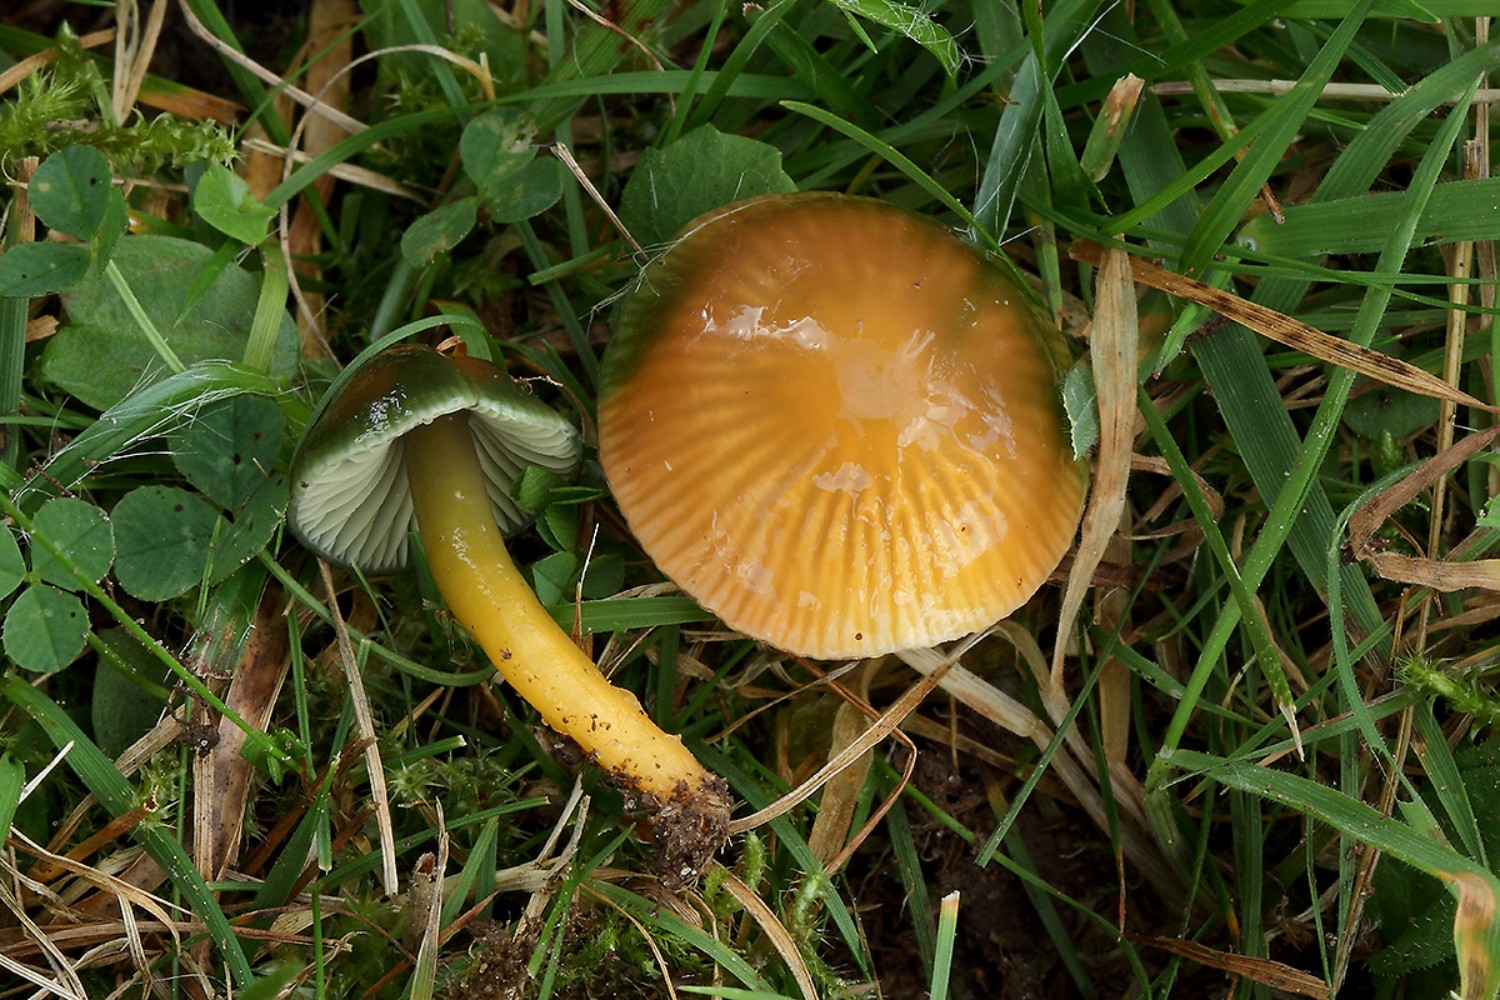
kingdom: Fungi
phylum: Basidiomycota
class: Agaricomycetes
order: Agaricales
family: Hygrophoraceae
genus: Gliophorus
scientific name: Gliophorus psittacinus
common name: papegøje-vokshat
